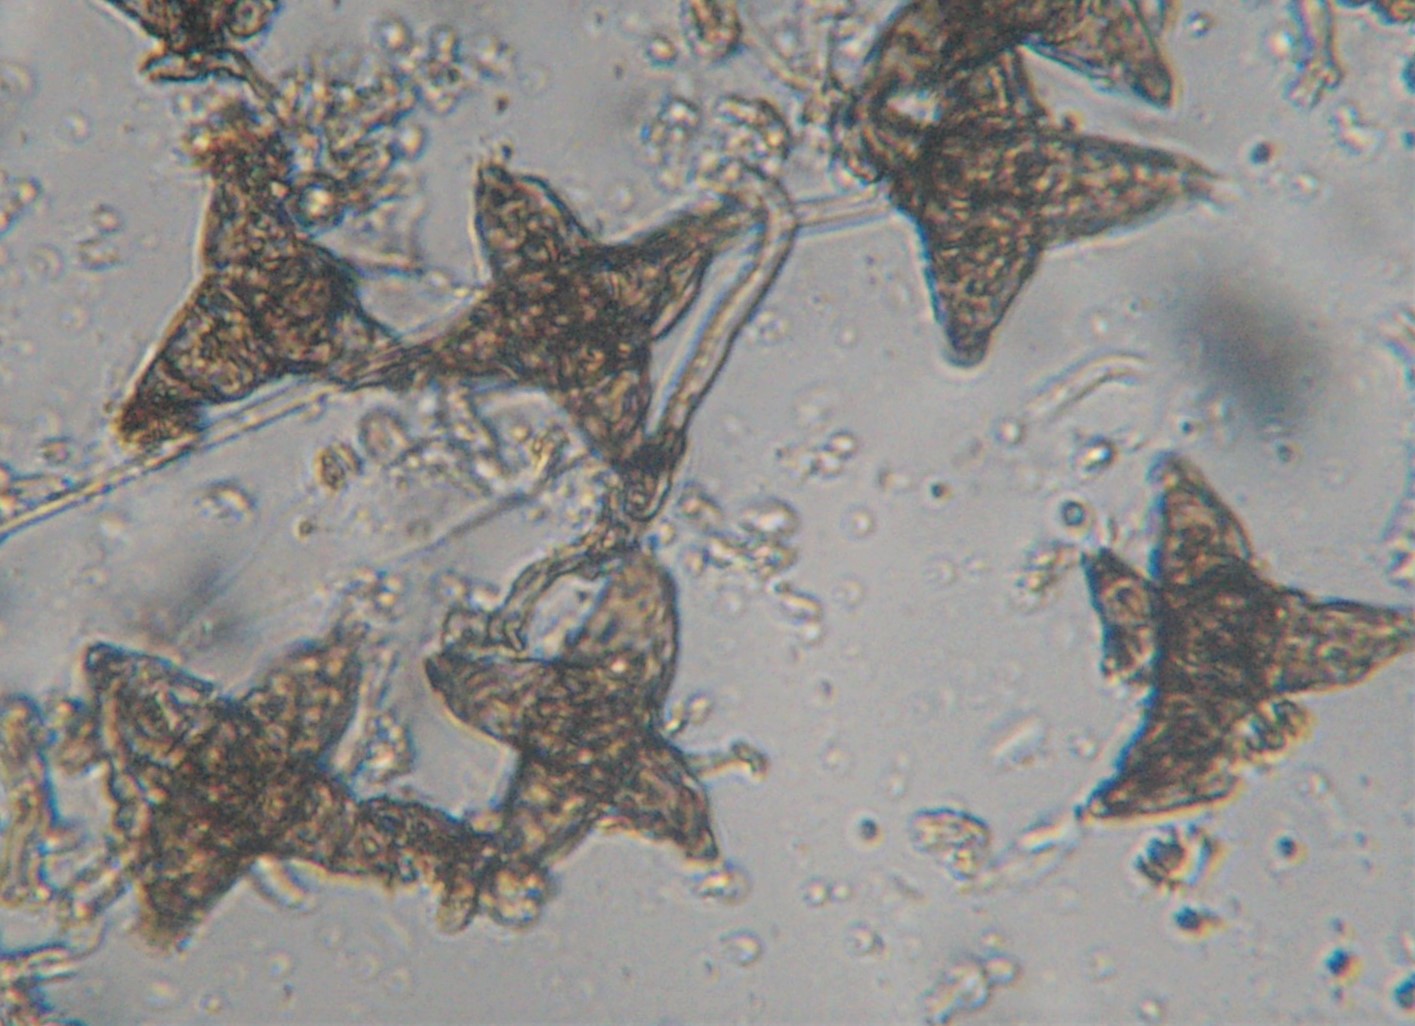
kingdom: Fungi
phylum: Ascomycota
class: Sordariomycetes
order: Diaporthales
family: Asterosporiaceae
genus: Asterosporium
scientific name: Asterosporium asterospermum
